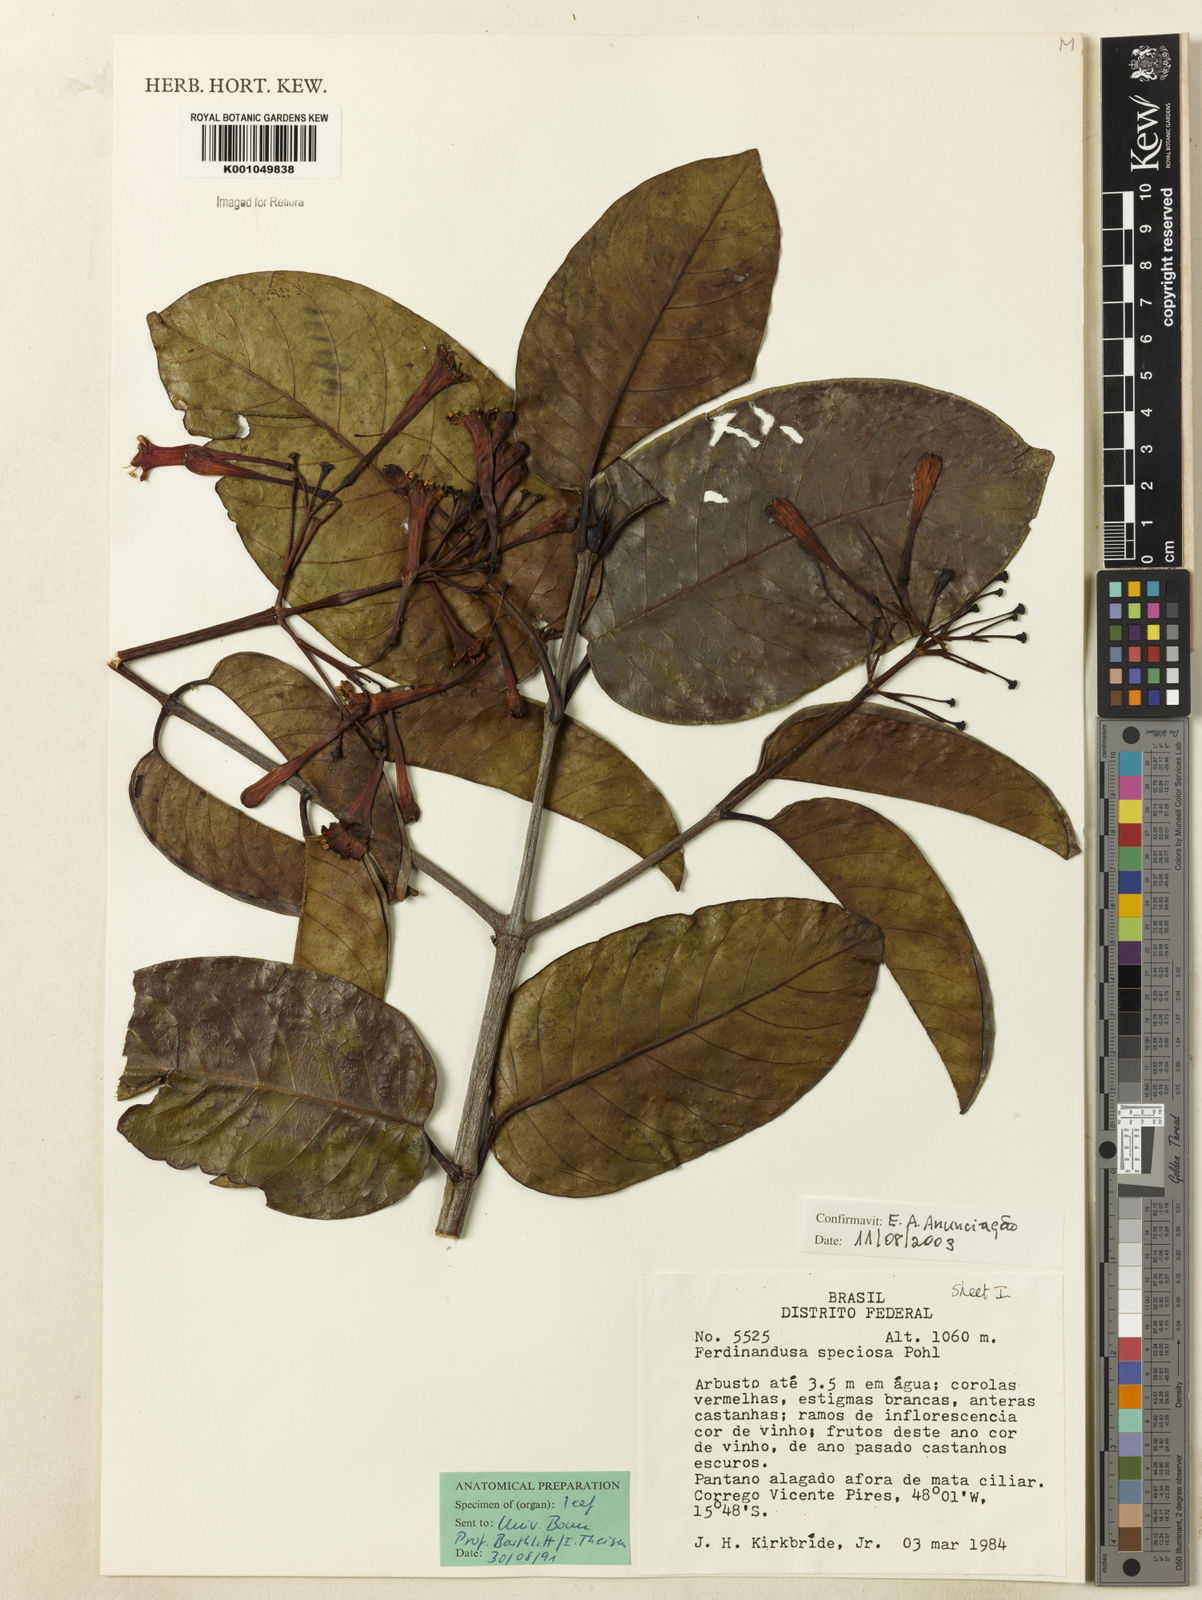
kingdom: Plantae
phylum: Tracheophyta
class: Magnoliopsida
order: Gentianales
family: Rubiaceae
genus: Ferdinandusa
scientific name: Ferdinandusa speciosa
